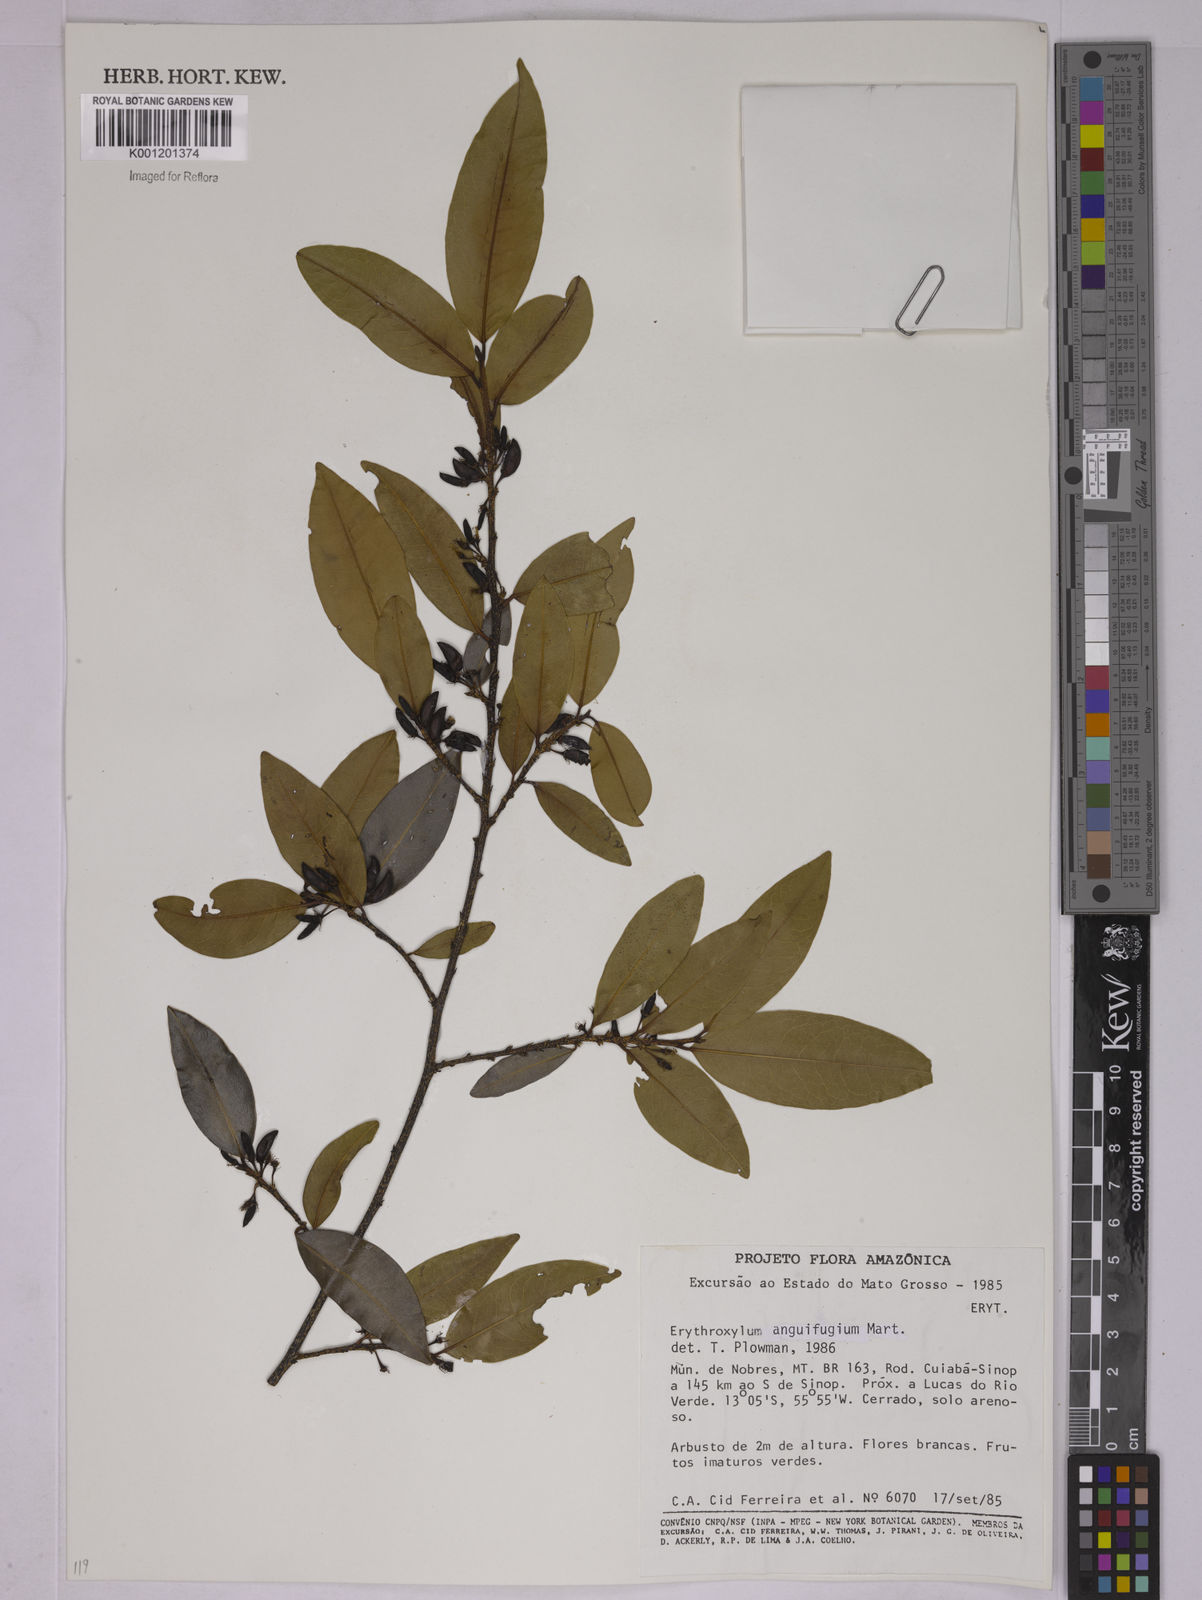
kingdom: Plantae
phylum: Tracheophyta
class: Magnoliopsida
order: Malpighiales
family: Erythroxylaceae
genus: Erythroxylum
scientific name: Erythroxylum anguifugum
